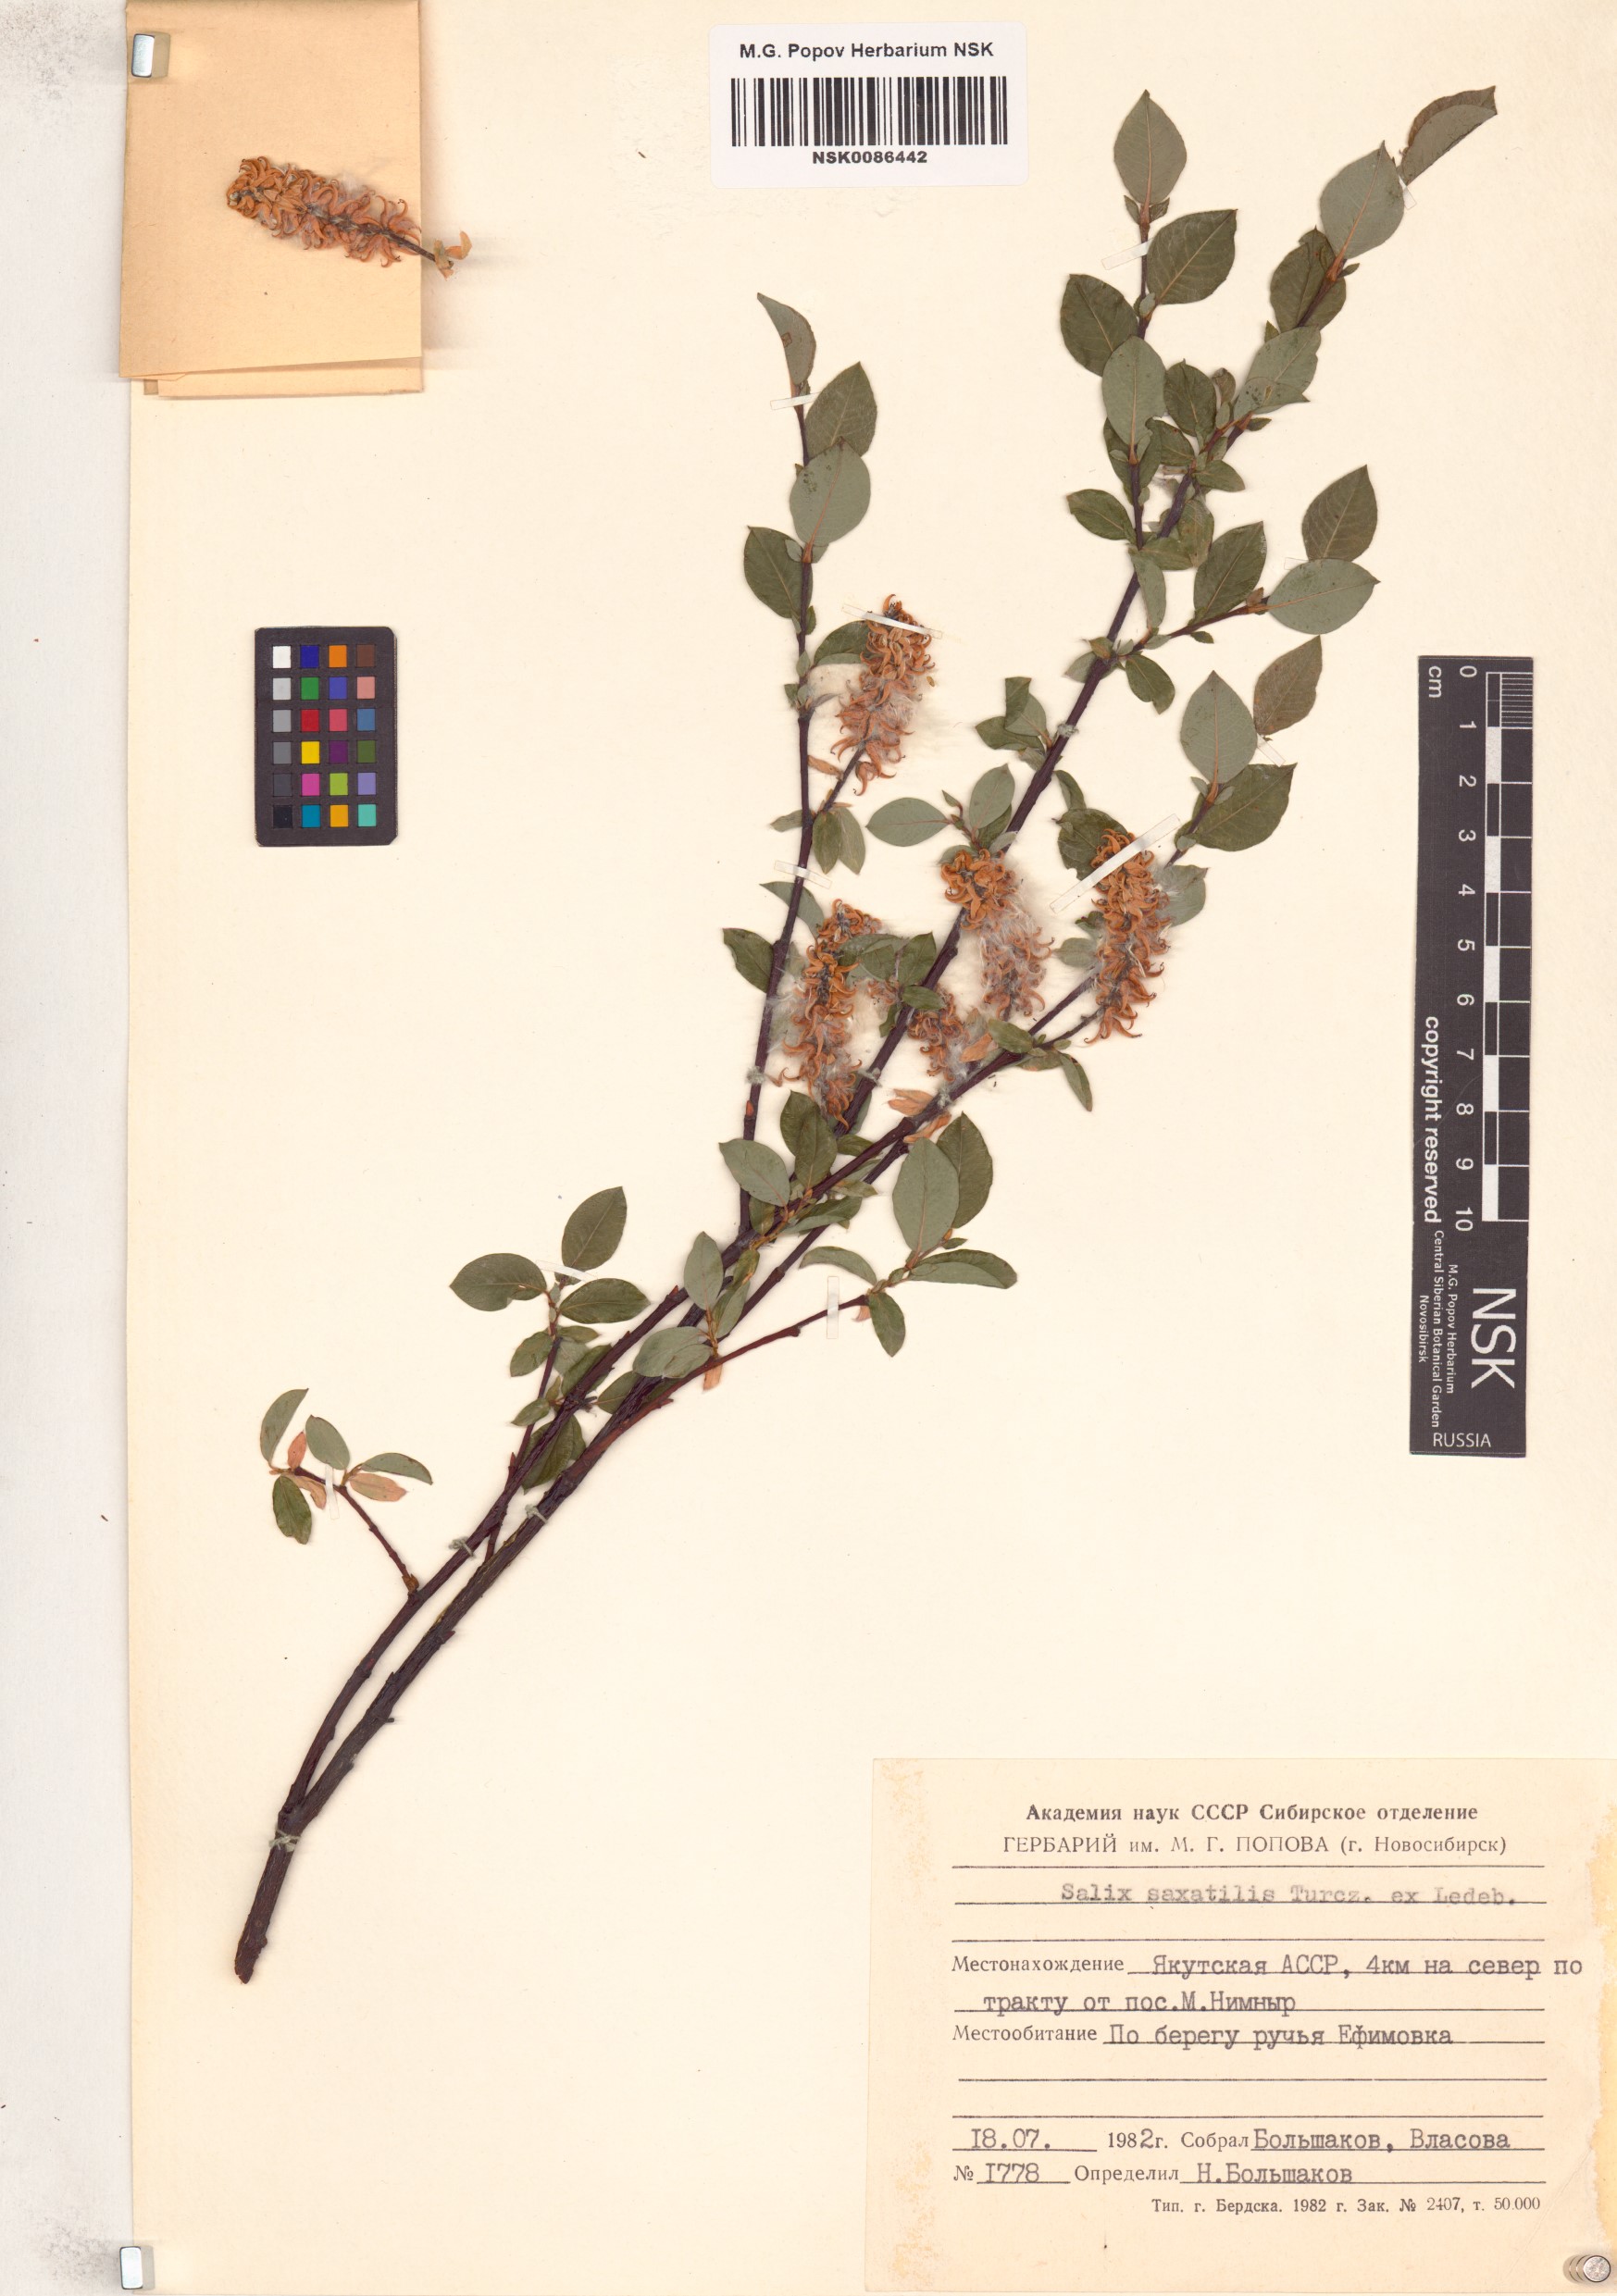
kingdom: Plantae
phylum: Tracheophyta
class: Magnoliopsida
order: Malpighiales
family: Salicaceae
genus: Salix
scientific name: Salix saxatilis
